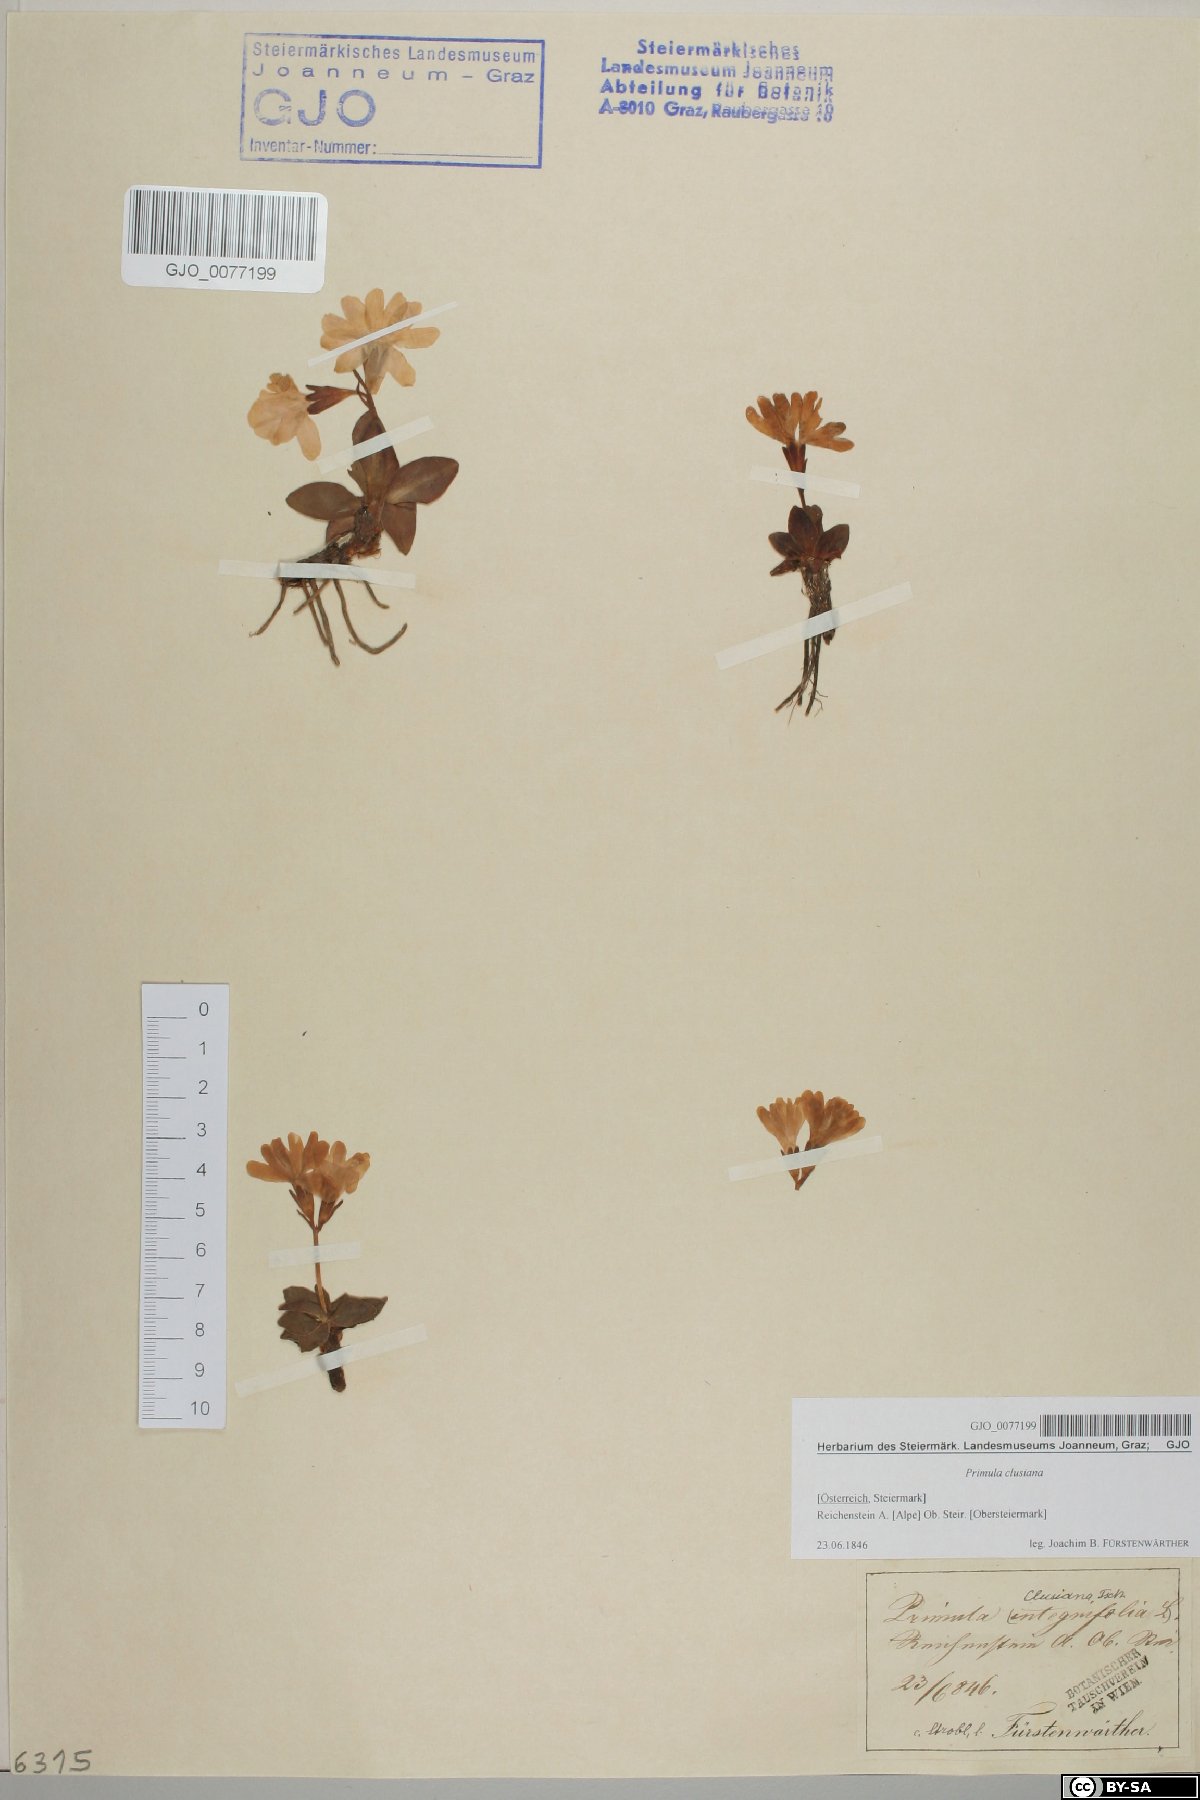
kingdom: Plantae
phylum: Tracheophyta
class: Magnoliopsida
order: Ericales
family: Primulaceae
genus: Primula
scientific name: Primula clusiana
